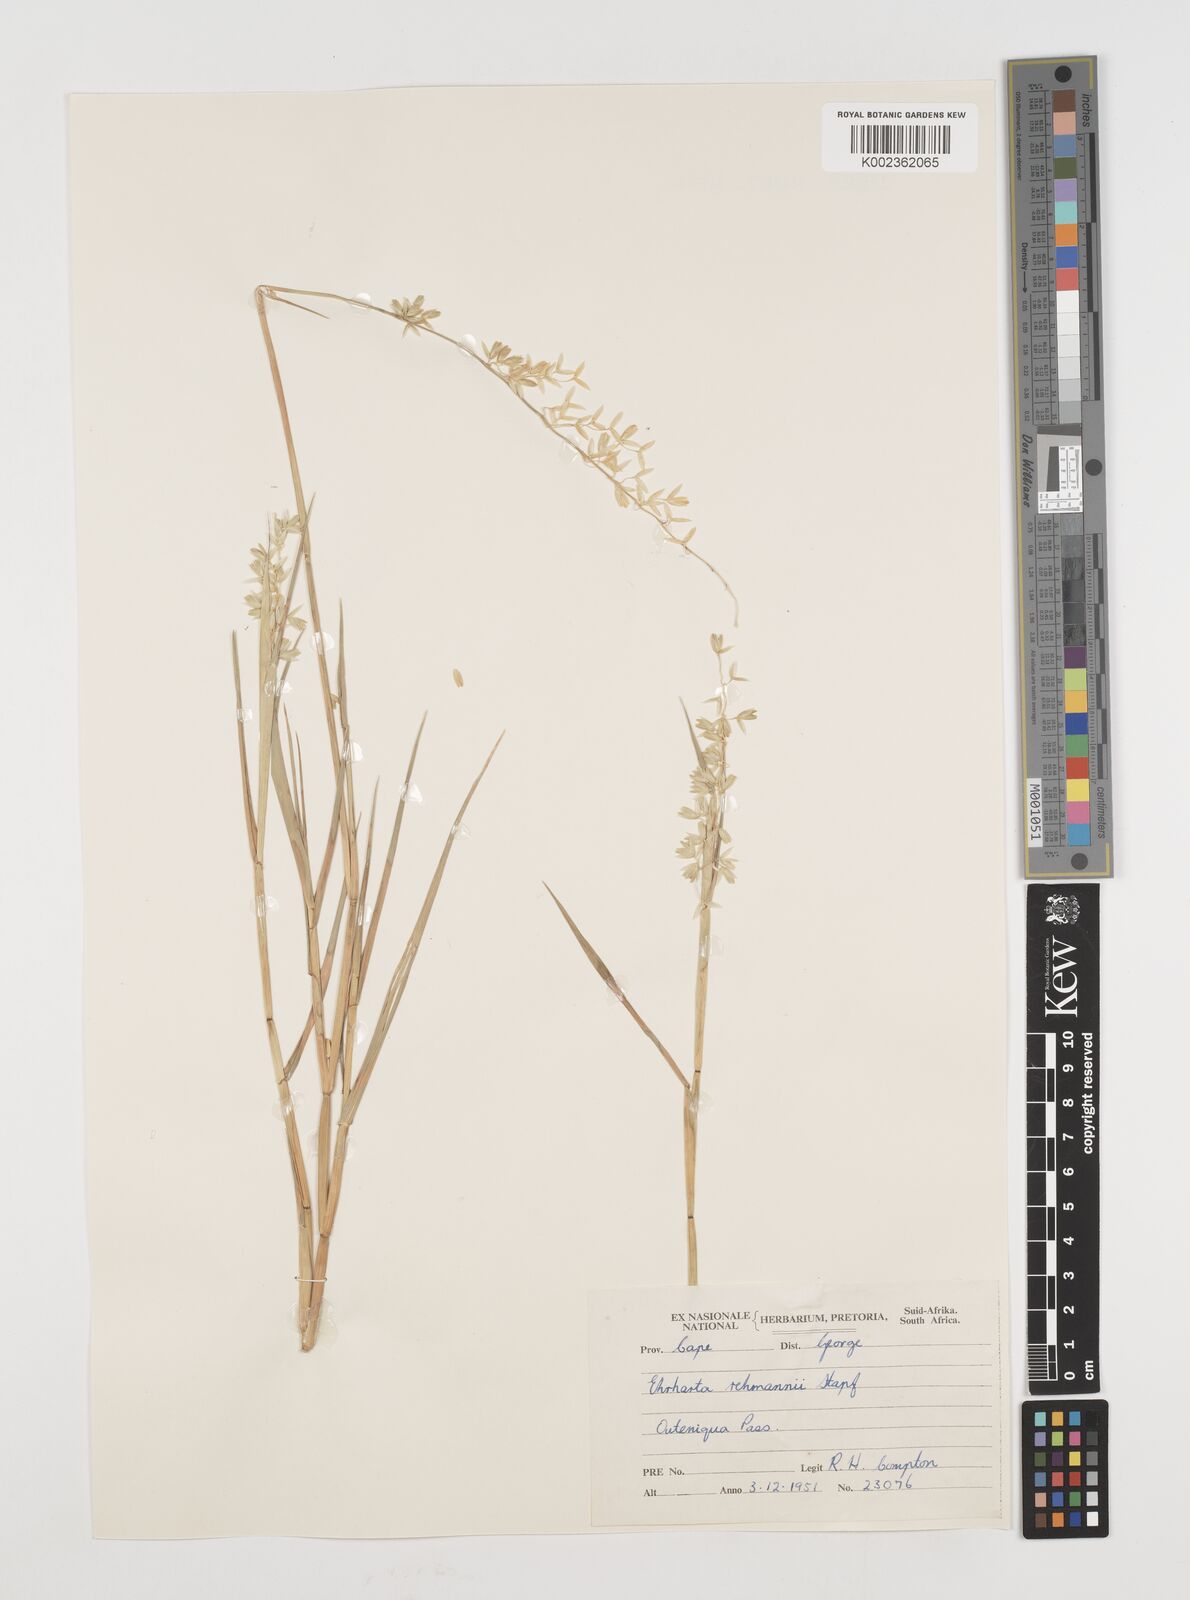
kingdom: Plantae
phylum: Tracheophyta
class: Liliopsida
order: Poales
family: Poaceae
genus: Ehrharta
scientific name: Ehrharta rehmannii
